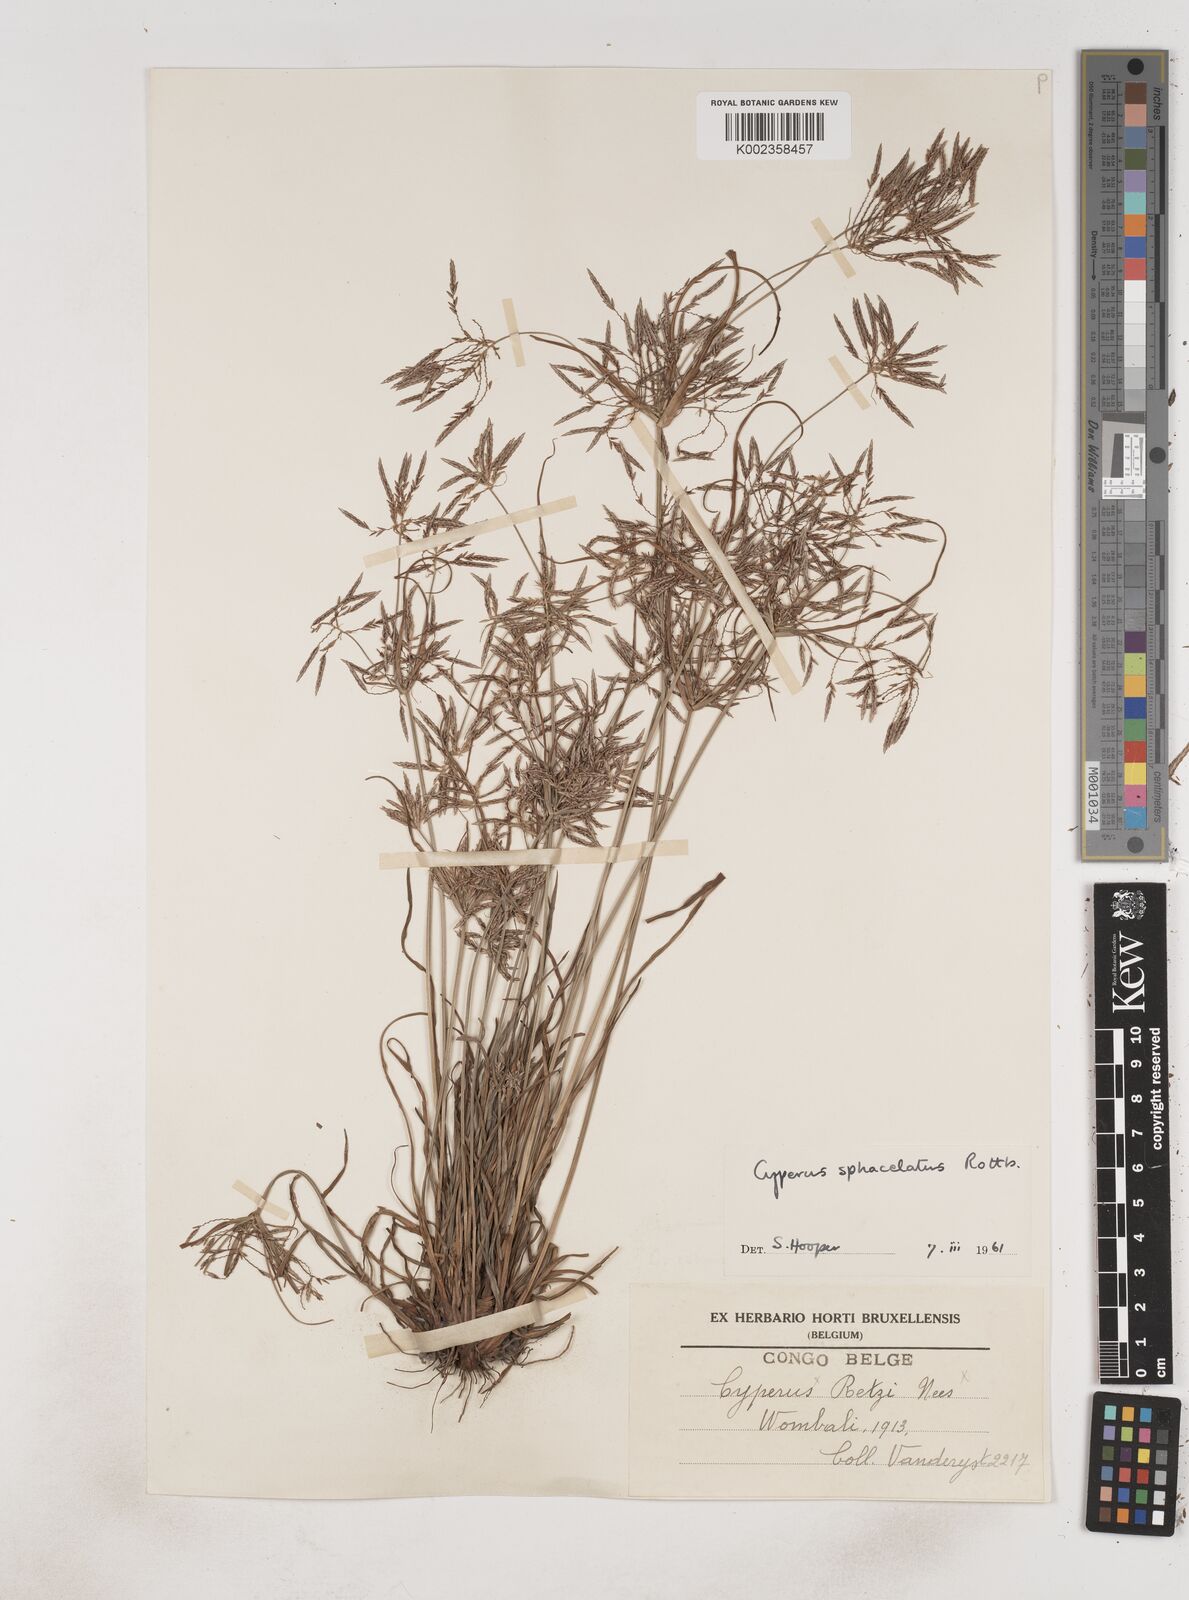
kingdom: Plantae
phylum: Tracheophyta
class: Liliopsida
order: Poales
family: Cyperaceae
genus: Cyperus
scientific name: Cyperus sphacelatus
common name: Roadside flatsedge
